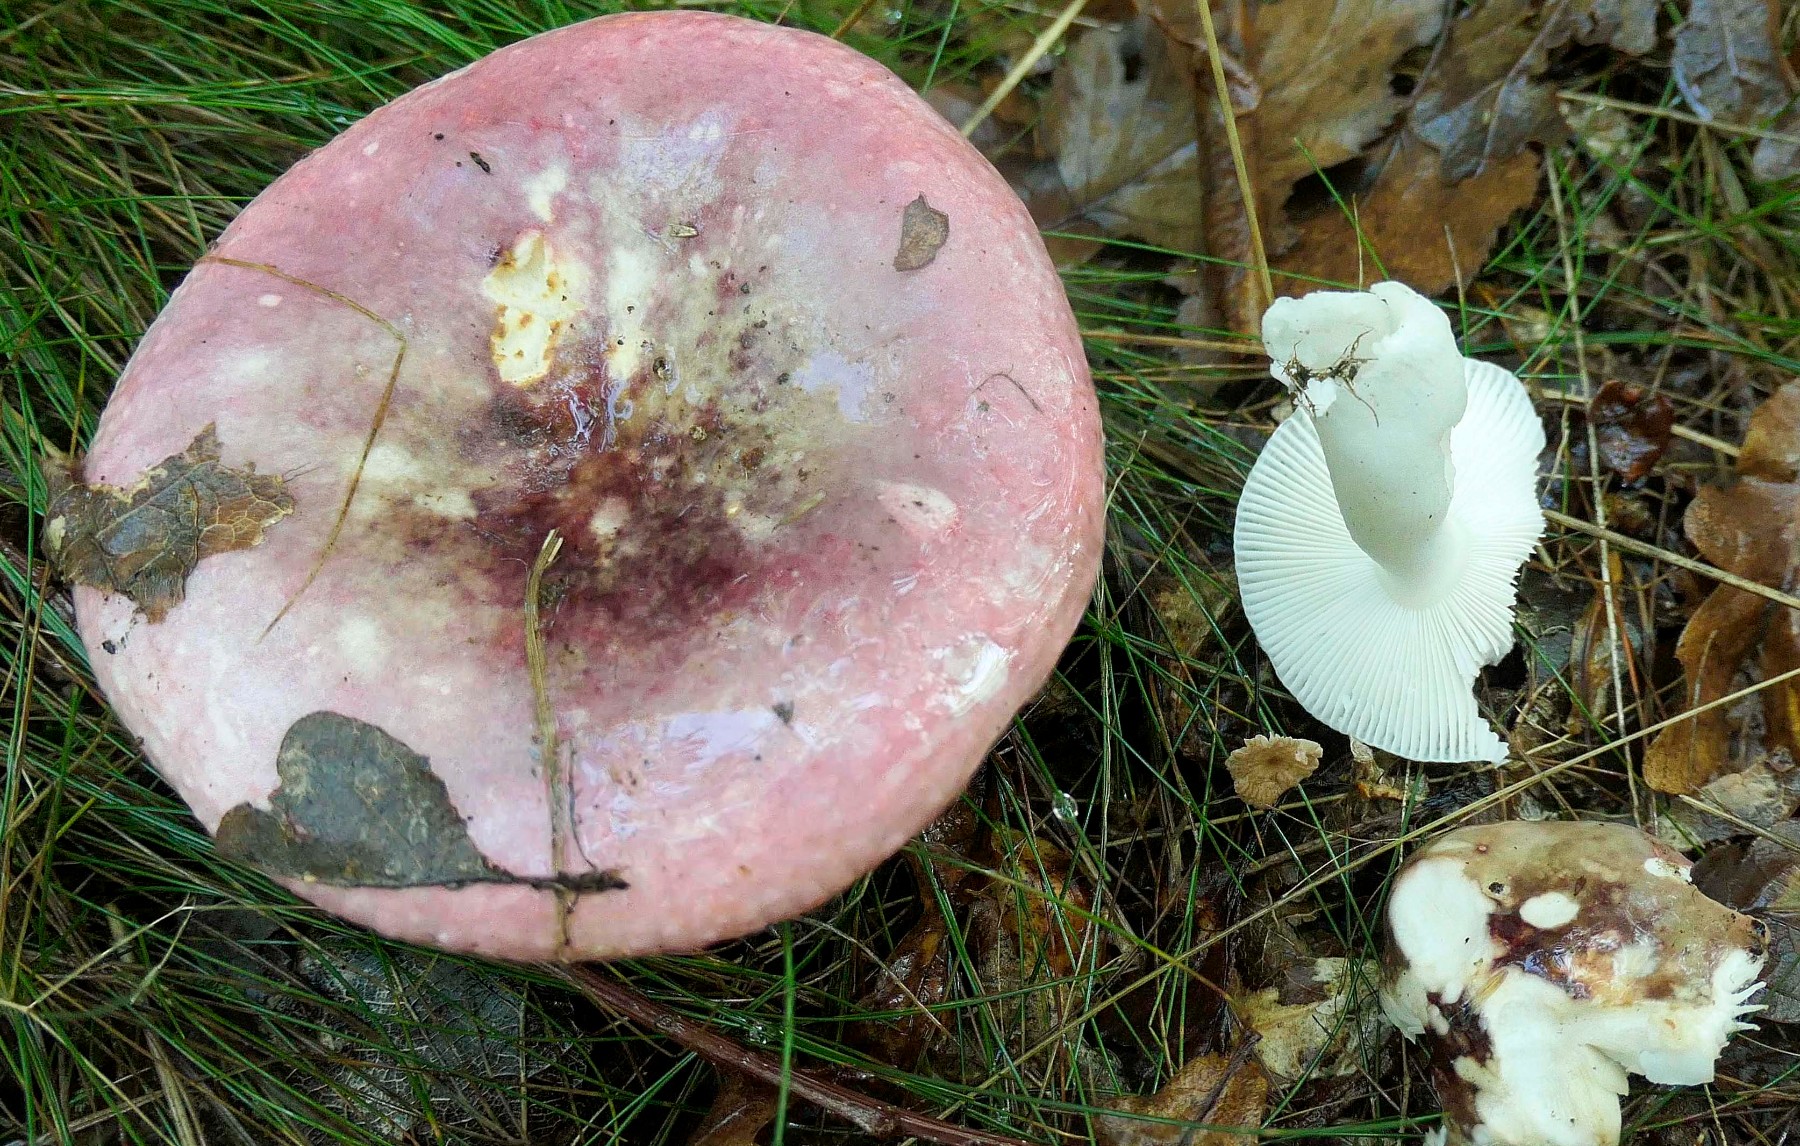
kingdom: Fungi
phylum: Basidiomycota
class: Agaricomycetes
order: Russulales
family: Russulaceae
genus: Russula
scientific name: Russula fragilis
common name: savbladet skørhat
